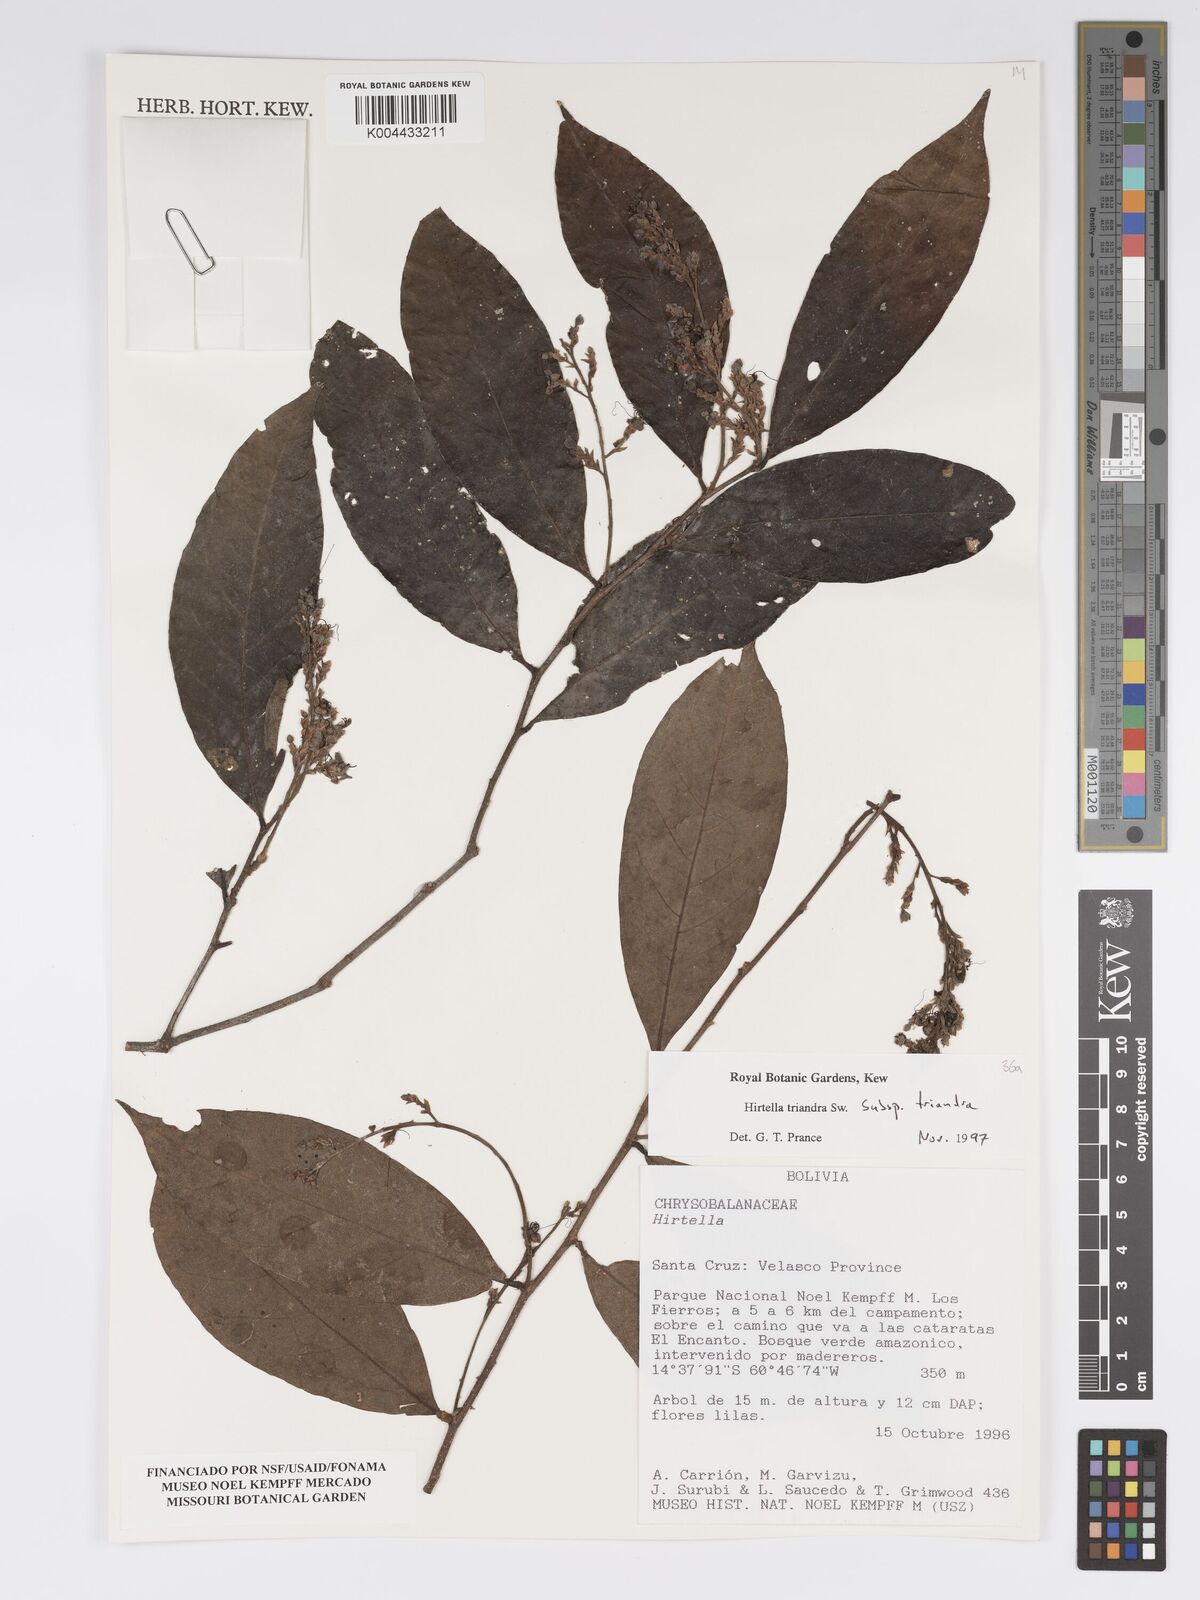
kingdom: Plantae
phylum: Tracheophyta
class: Magnoliopsida
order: Malpighiales
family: Chrysobalanaceae
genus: Hirtella
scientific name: Hirtella triandra
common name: Hairy plum
